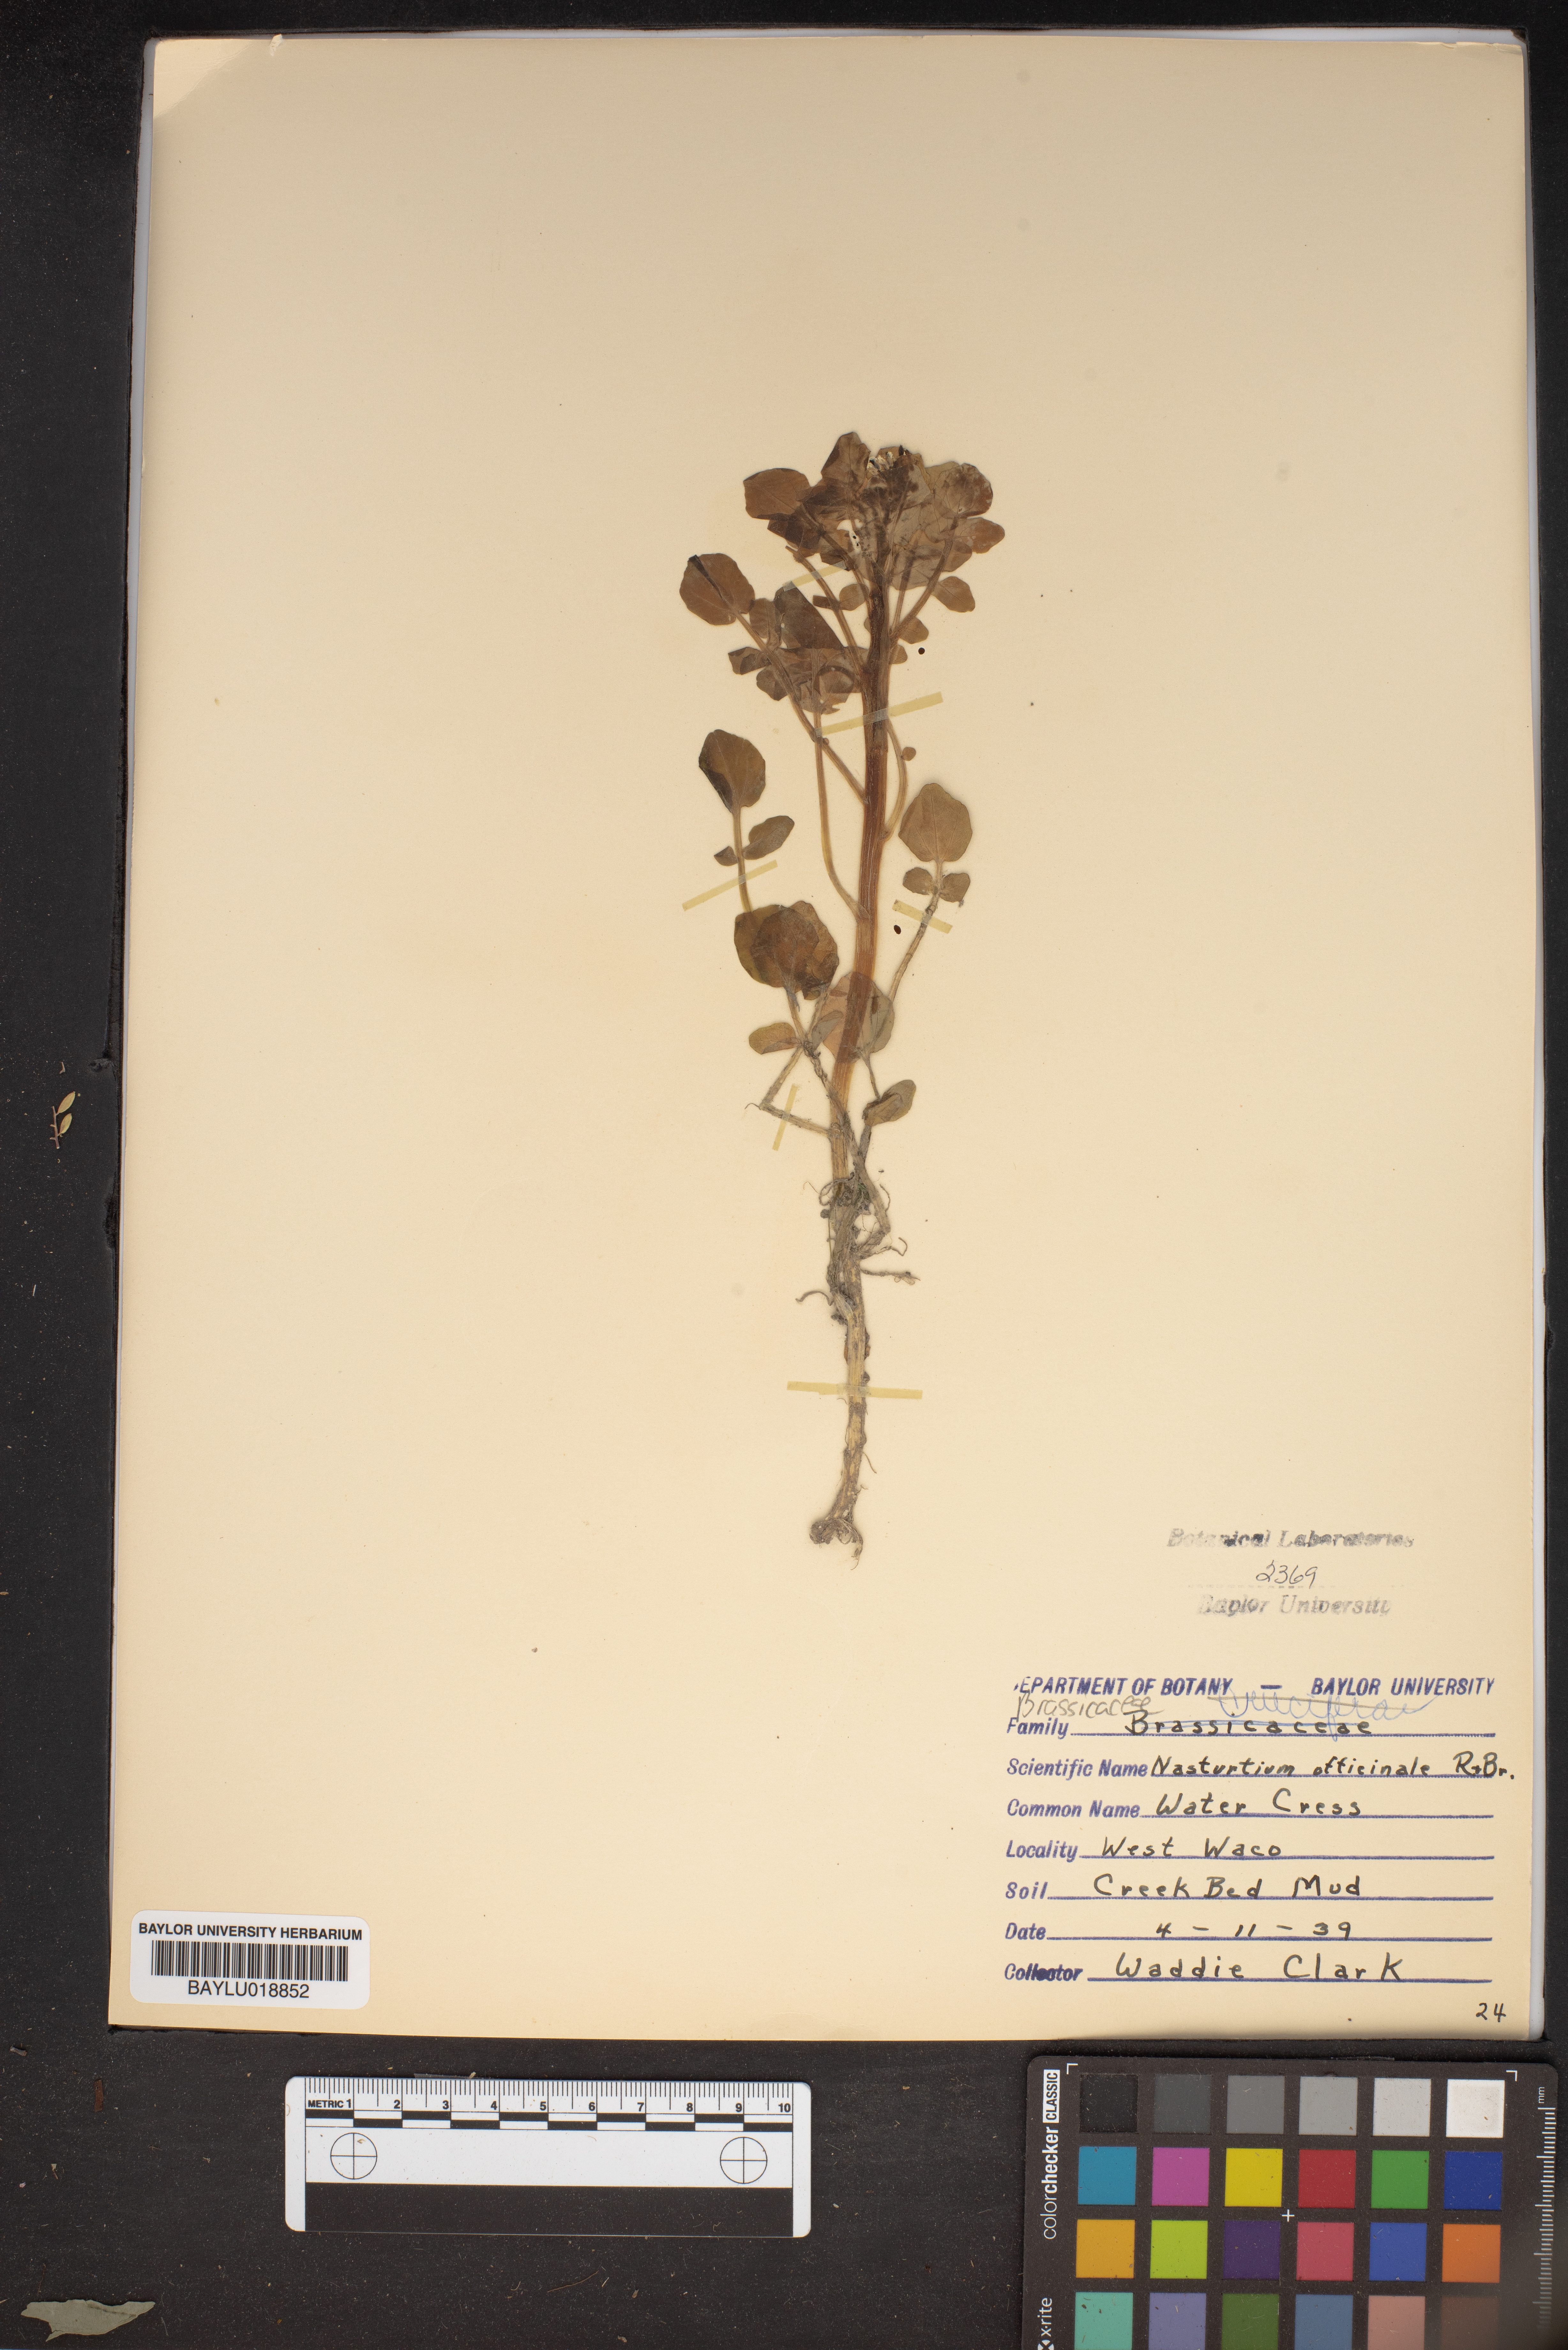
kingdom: Plantae
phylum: Tracheophyta
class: Magnoliopsida
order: Brassicales
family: Brassicaceae
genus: Nasturtium
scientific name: Nasturtium officinale
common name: Watercress
